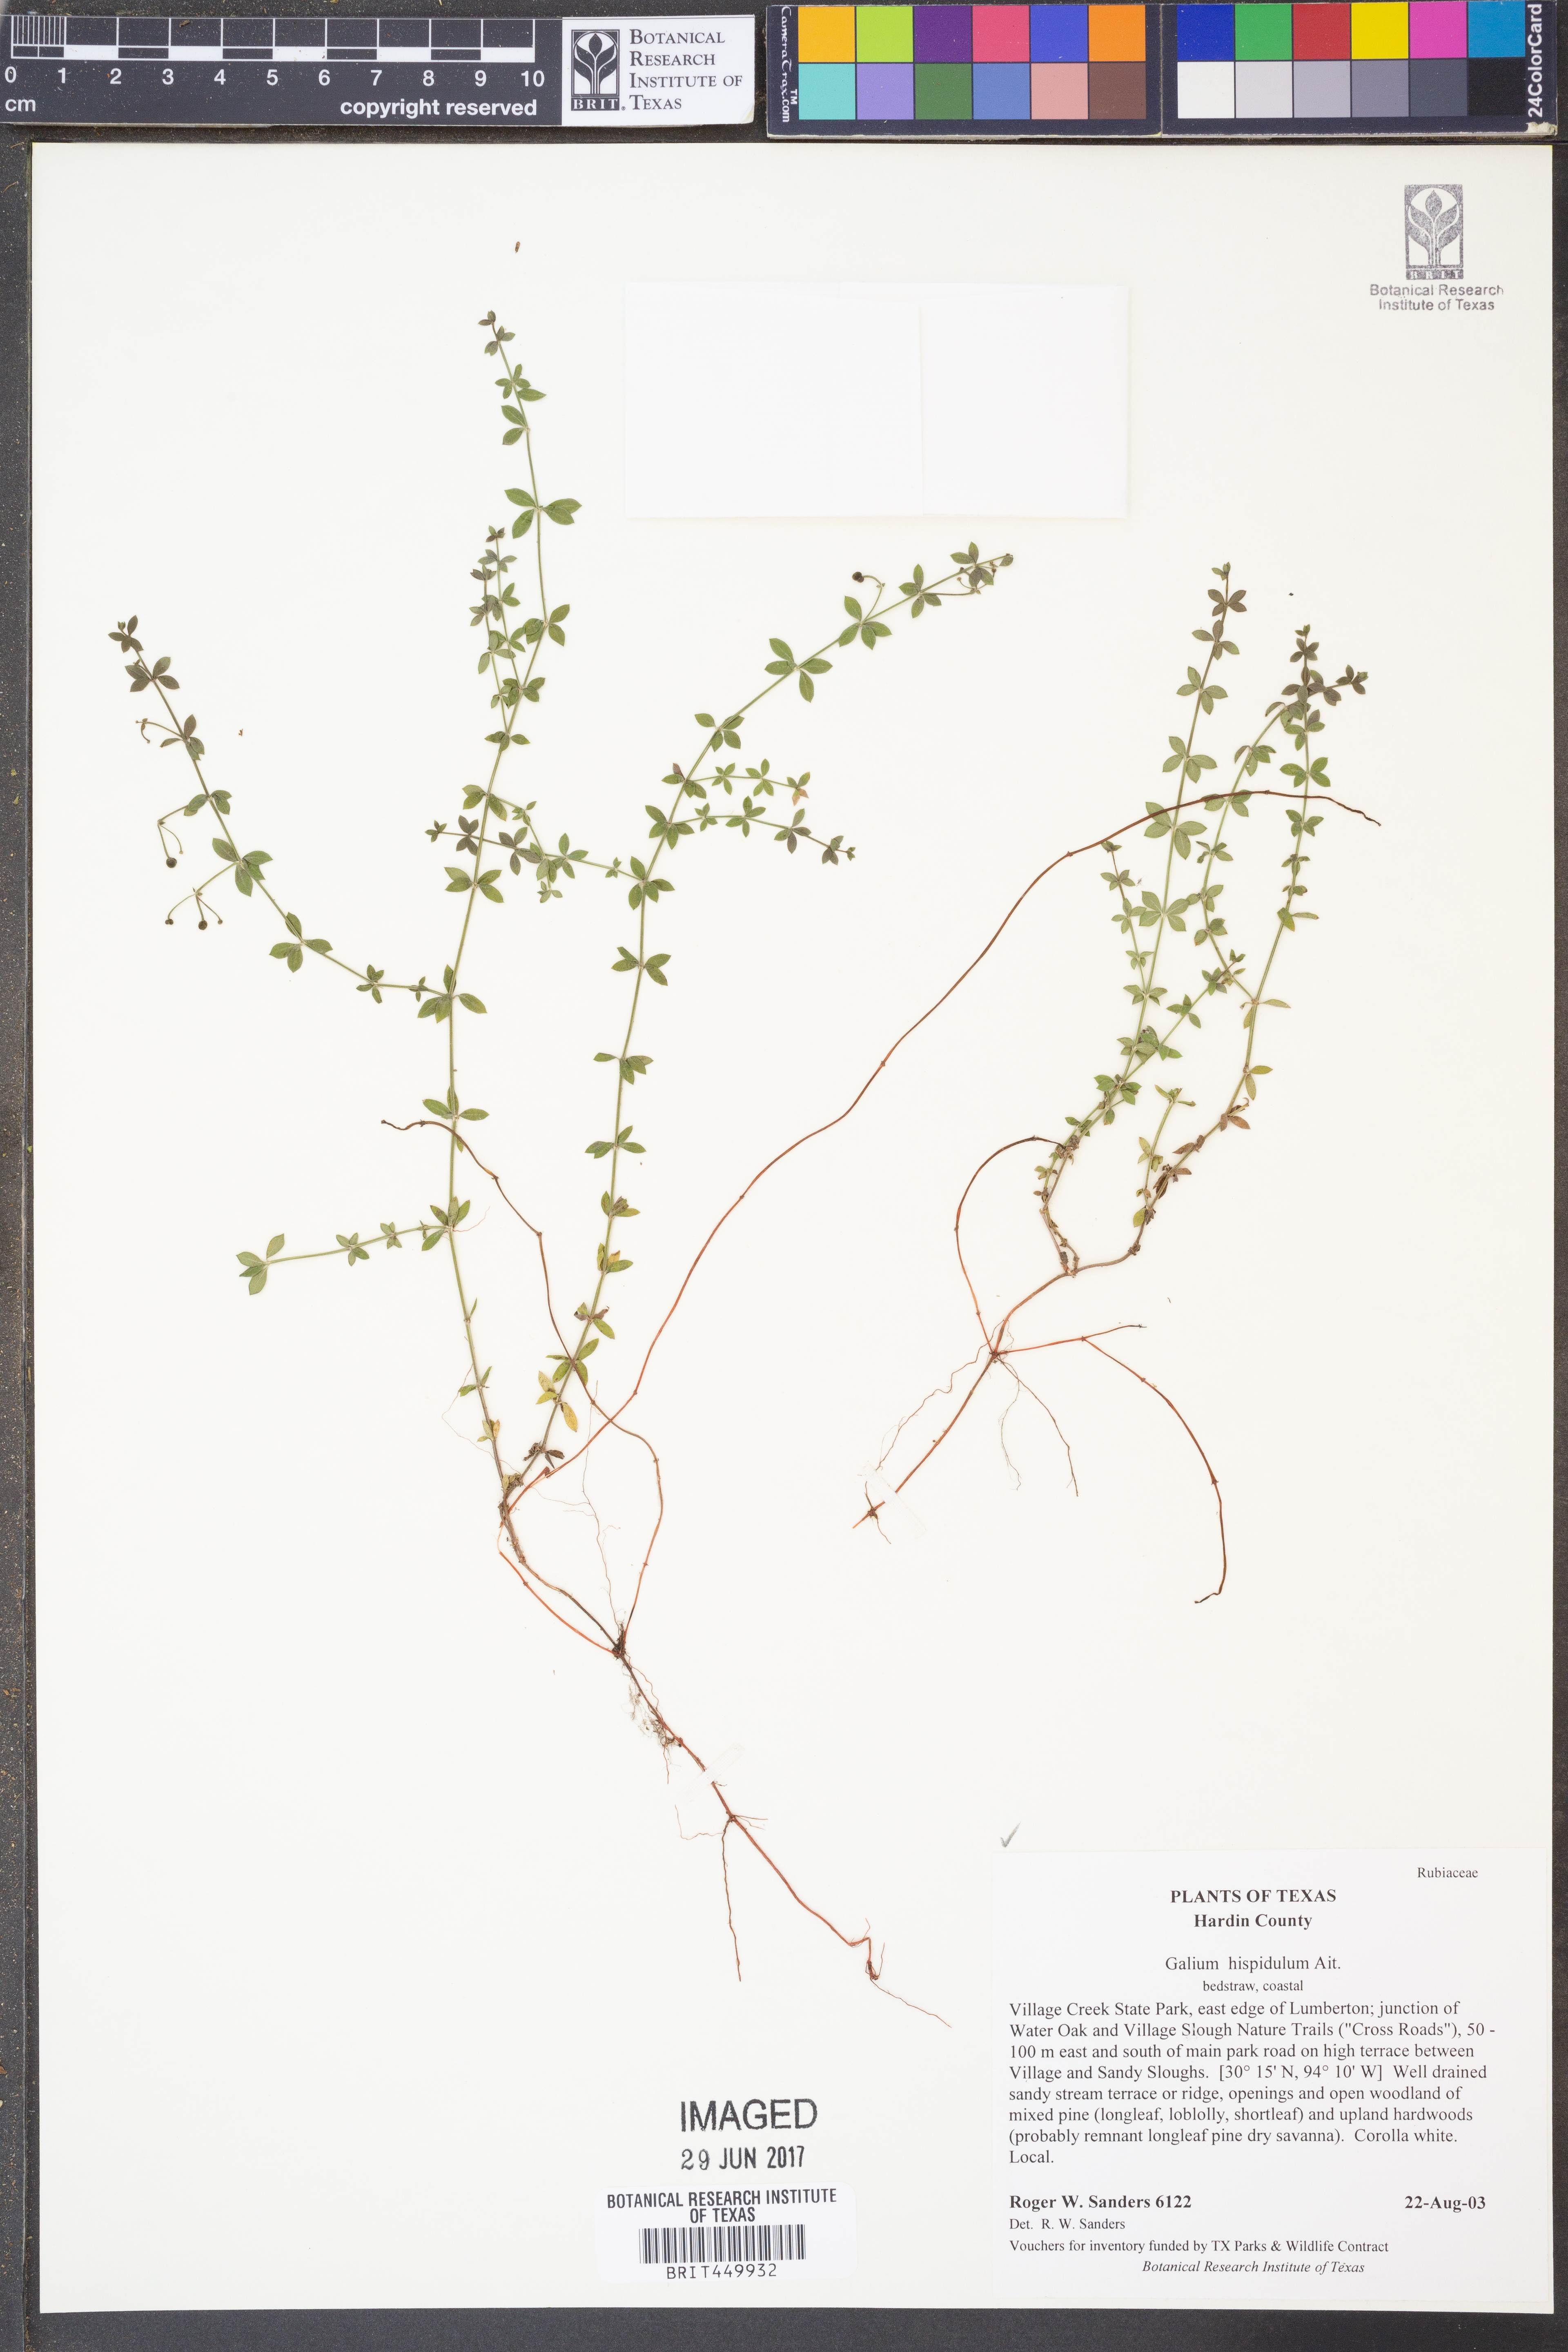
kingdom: Plantae
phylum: Tracheophyta
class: Magnoliopsida
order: Gentianales
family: Rubiaceae
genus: Galium
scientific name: Galium bermudense
